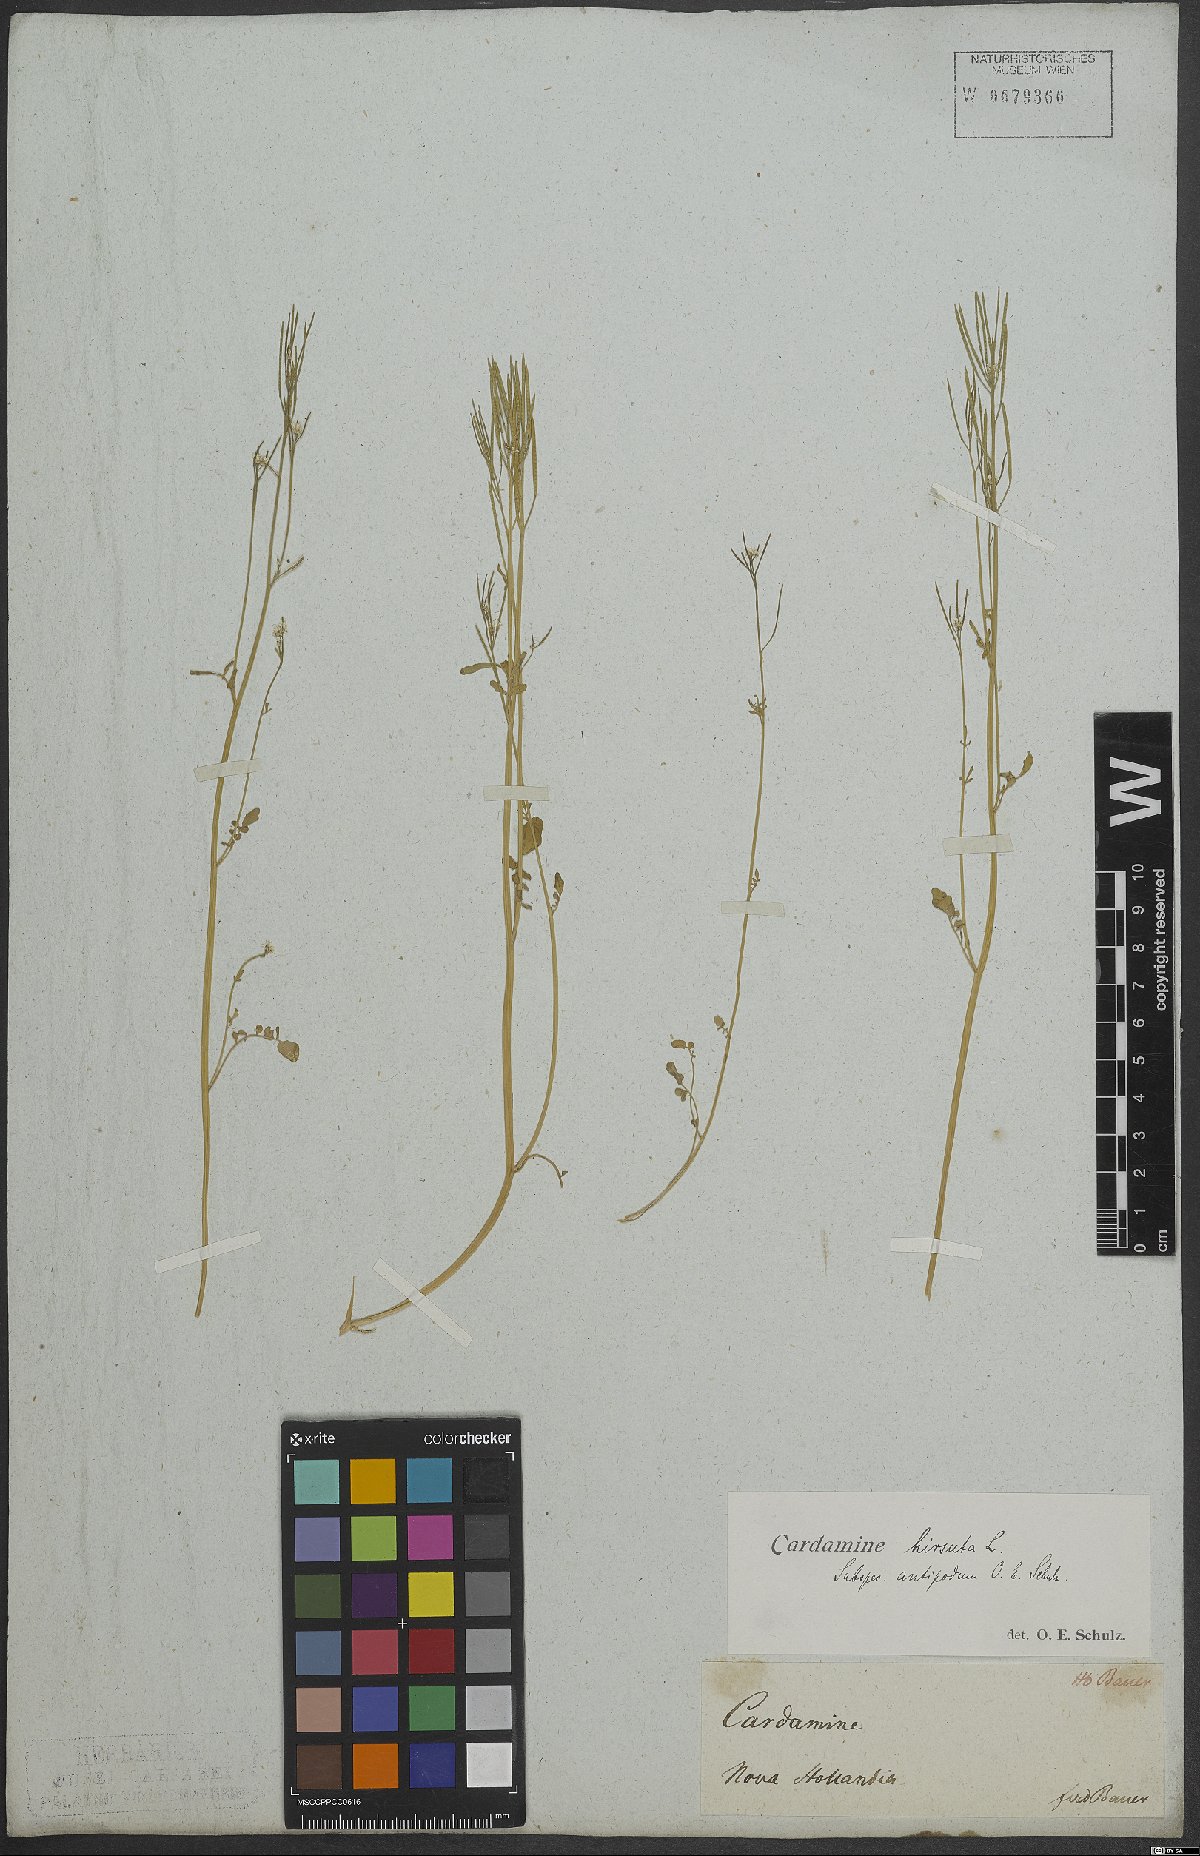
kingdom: Plantae
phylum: Tracheophyta
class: Magnoliopsida
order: Brassicales
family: Brassicaceae
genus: Cardamine
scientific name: Cardamine hirsuta
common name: Hairy bittercress
